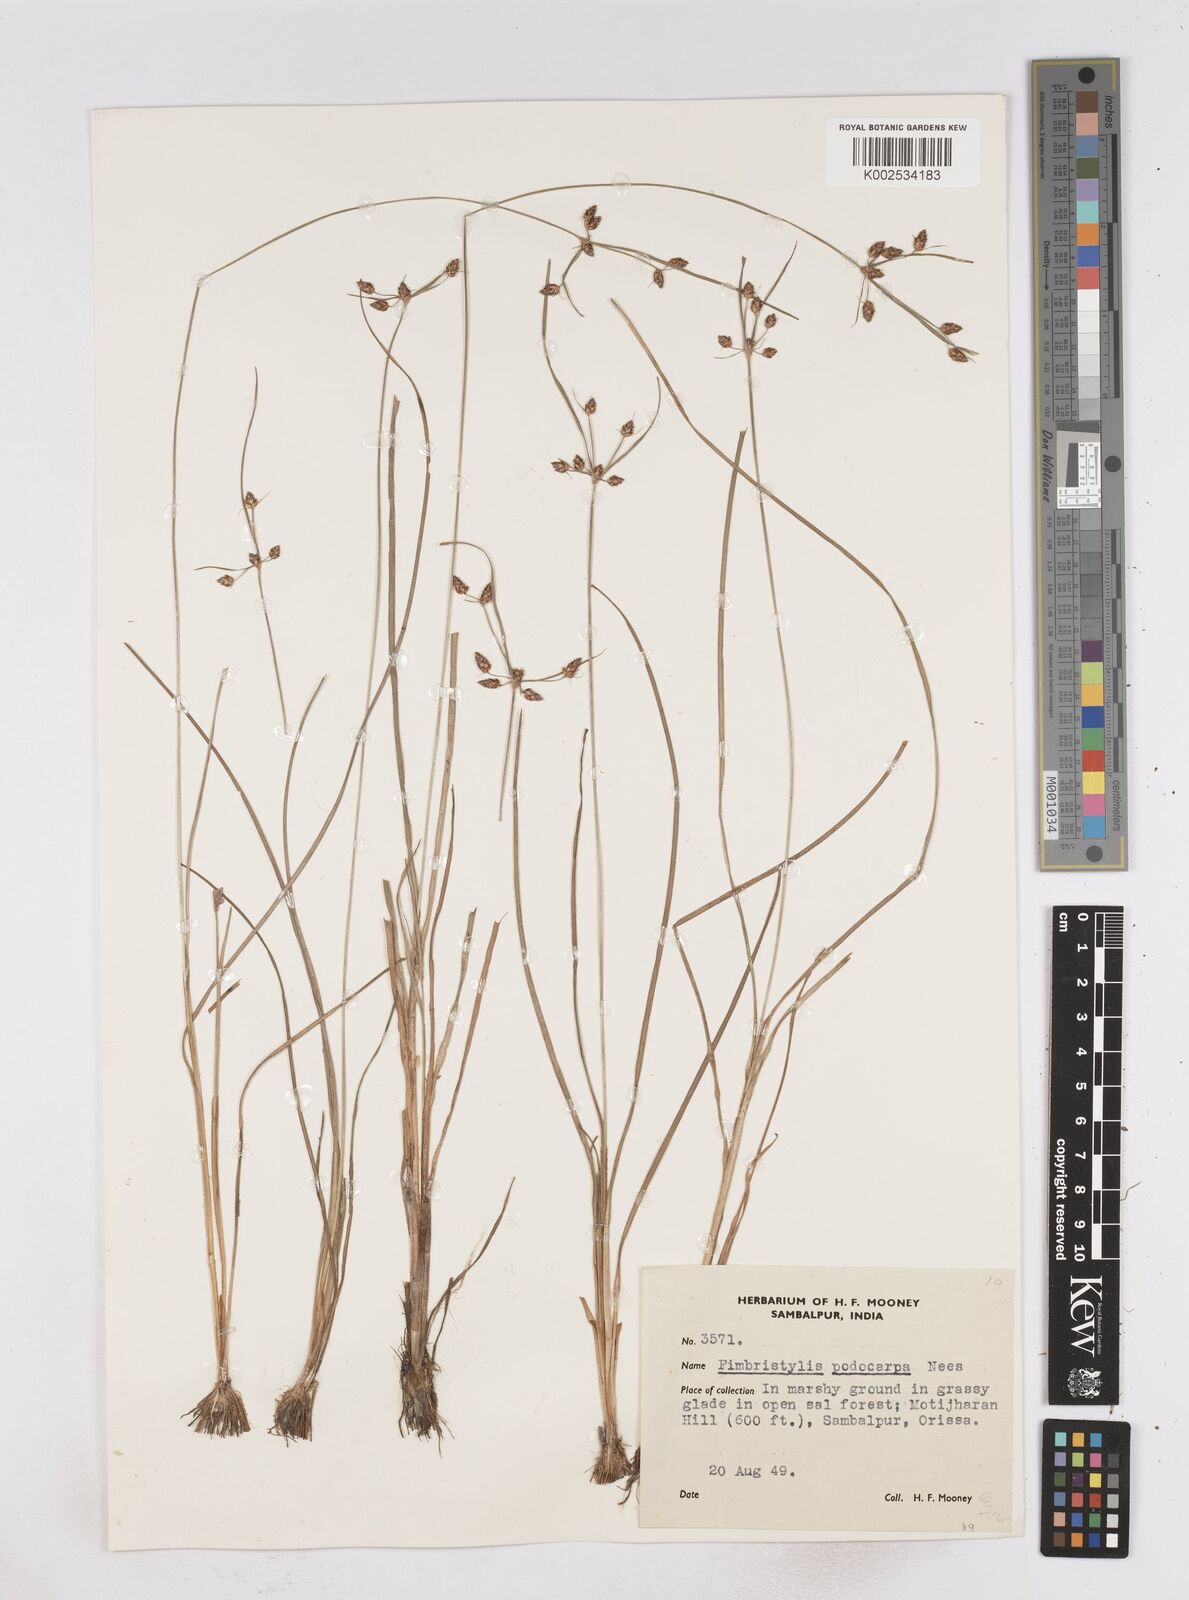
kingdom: Plantae
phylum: Tracheophyta
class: Liliopsida
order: Poales
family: Cyperaceae
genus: Fimbristylis
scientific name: Fimbristylis dichotoma
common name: Forked fimbry
